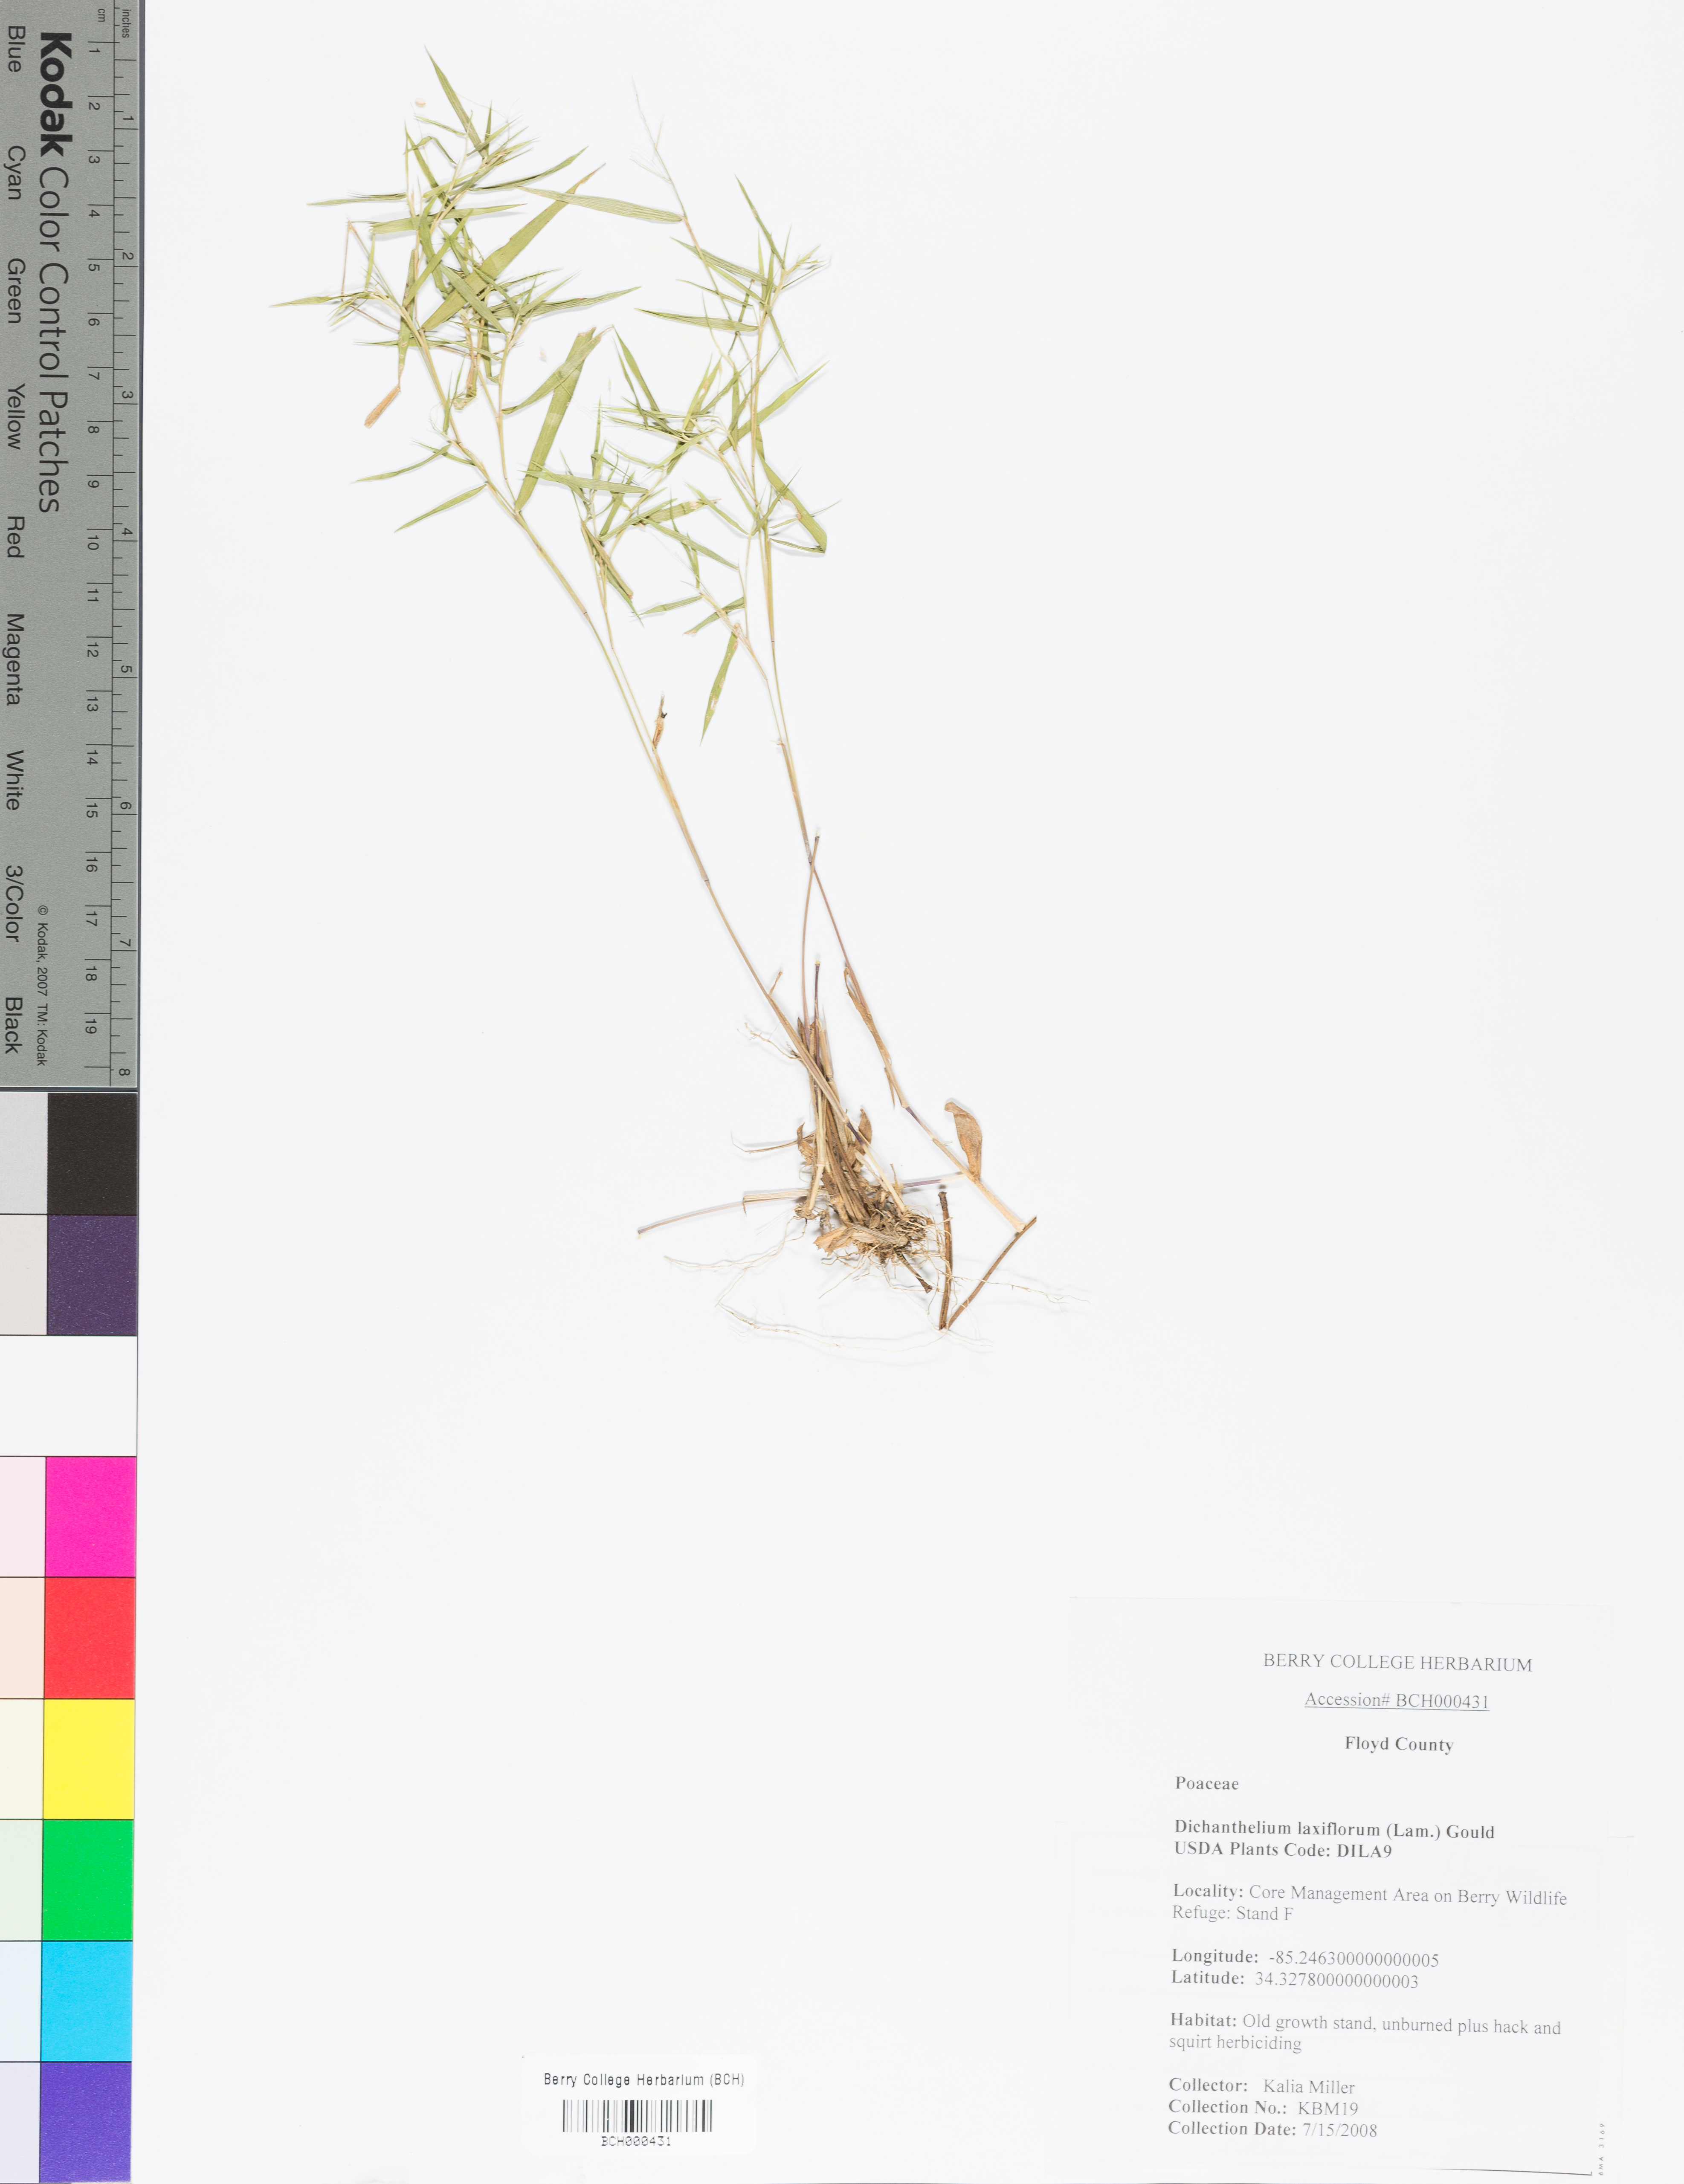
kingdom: Plantae
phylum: Tracheophyta
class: Liliopsida
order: Poales
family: Poaceae
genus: Dichanthelium
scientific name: Dichanthelium laxiflorum
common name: Soft-tuft panic grass
